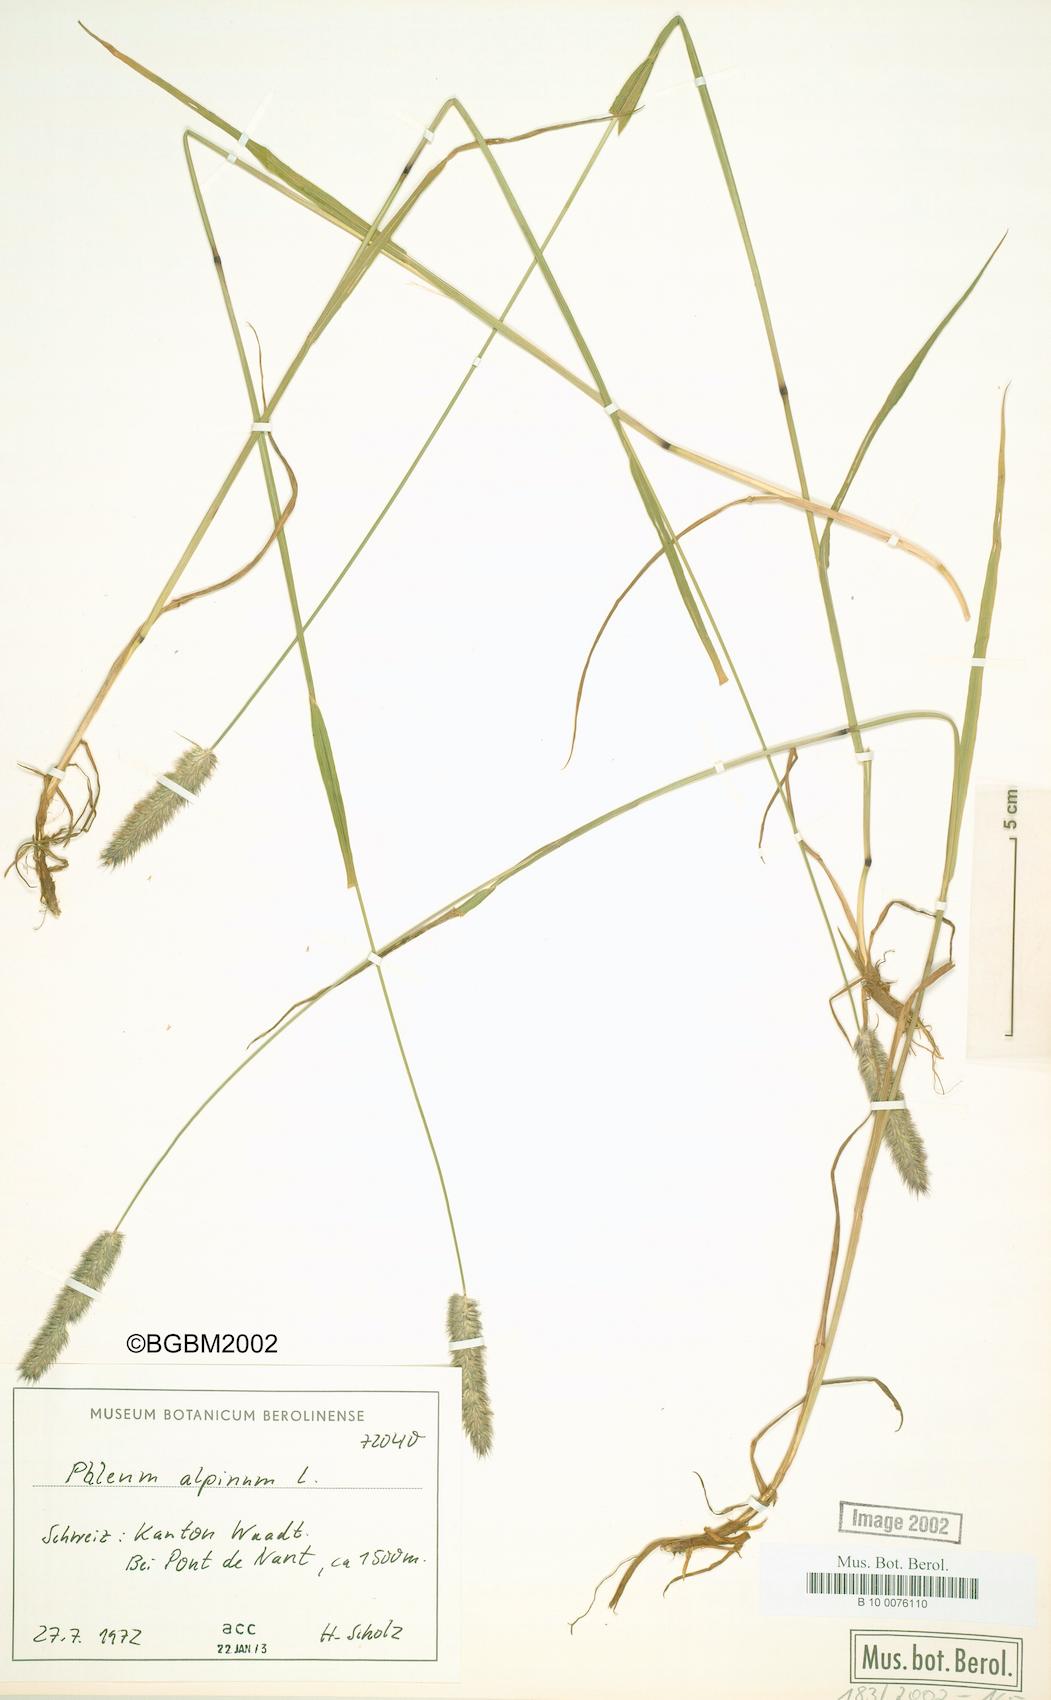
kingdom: Plantae
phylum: Tracheophyta
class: Liliopsida
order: Poales
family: Poaceae
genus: Phleum
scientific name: Phleum alpinum
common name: Alpine cat's-tail
